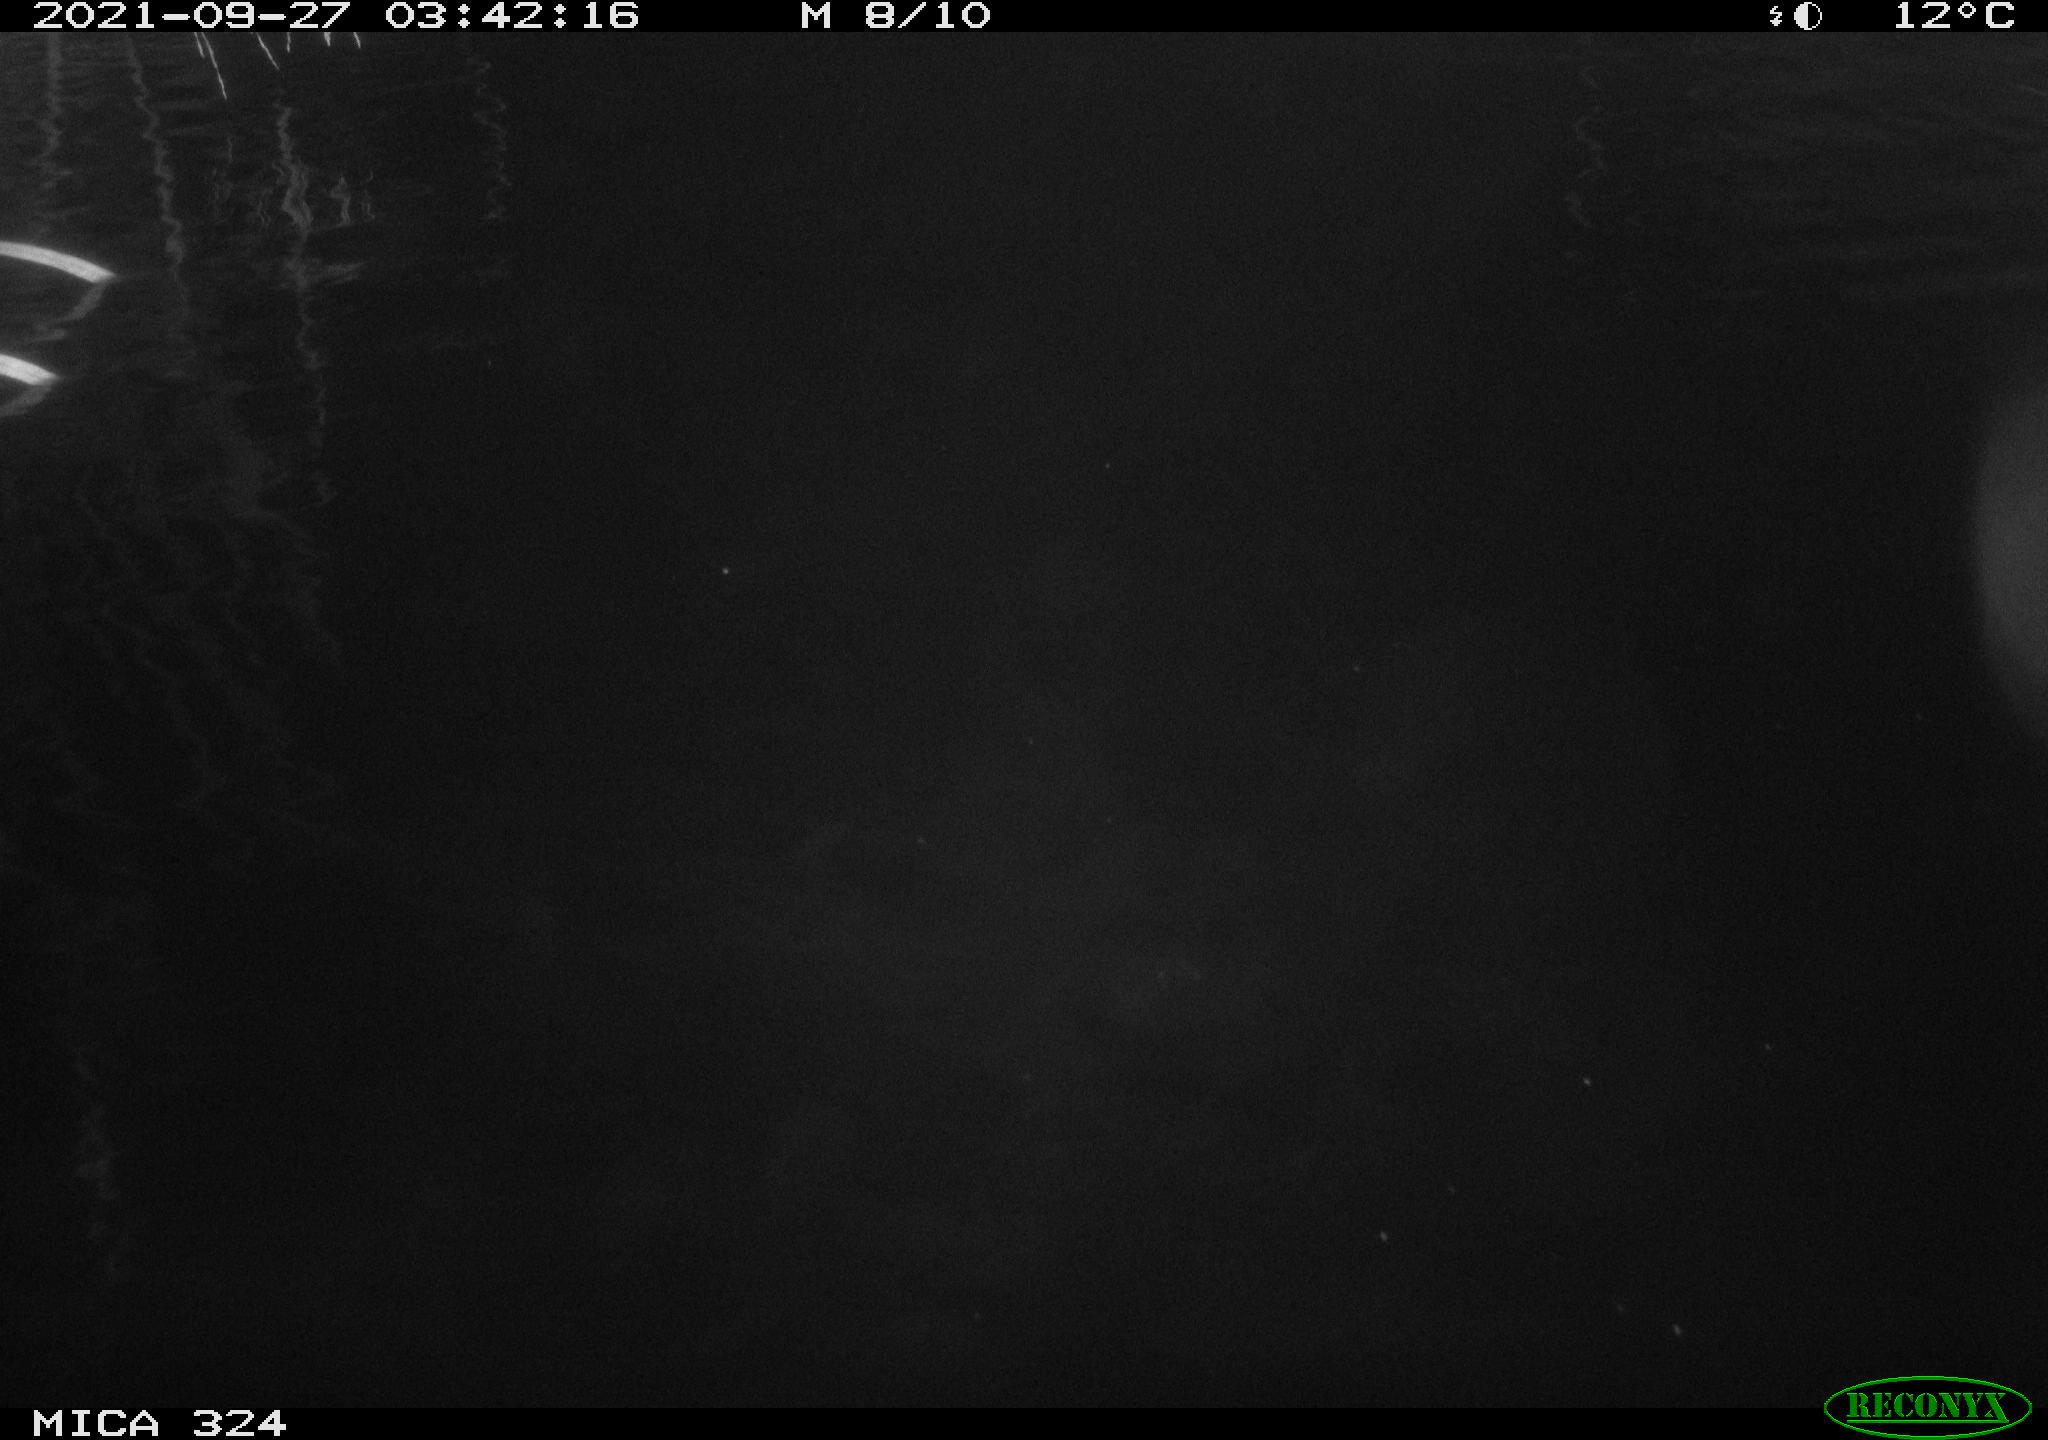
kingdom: Animalia
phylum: Chordata
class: Mammalia
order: Rodentia
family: Cricetidae
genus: Ondatra
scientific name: Ondatra zibethicus
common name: Muskrat
